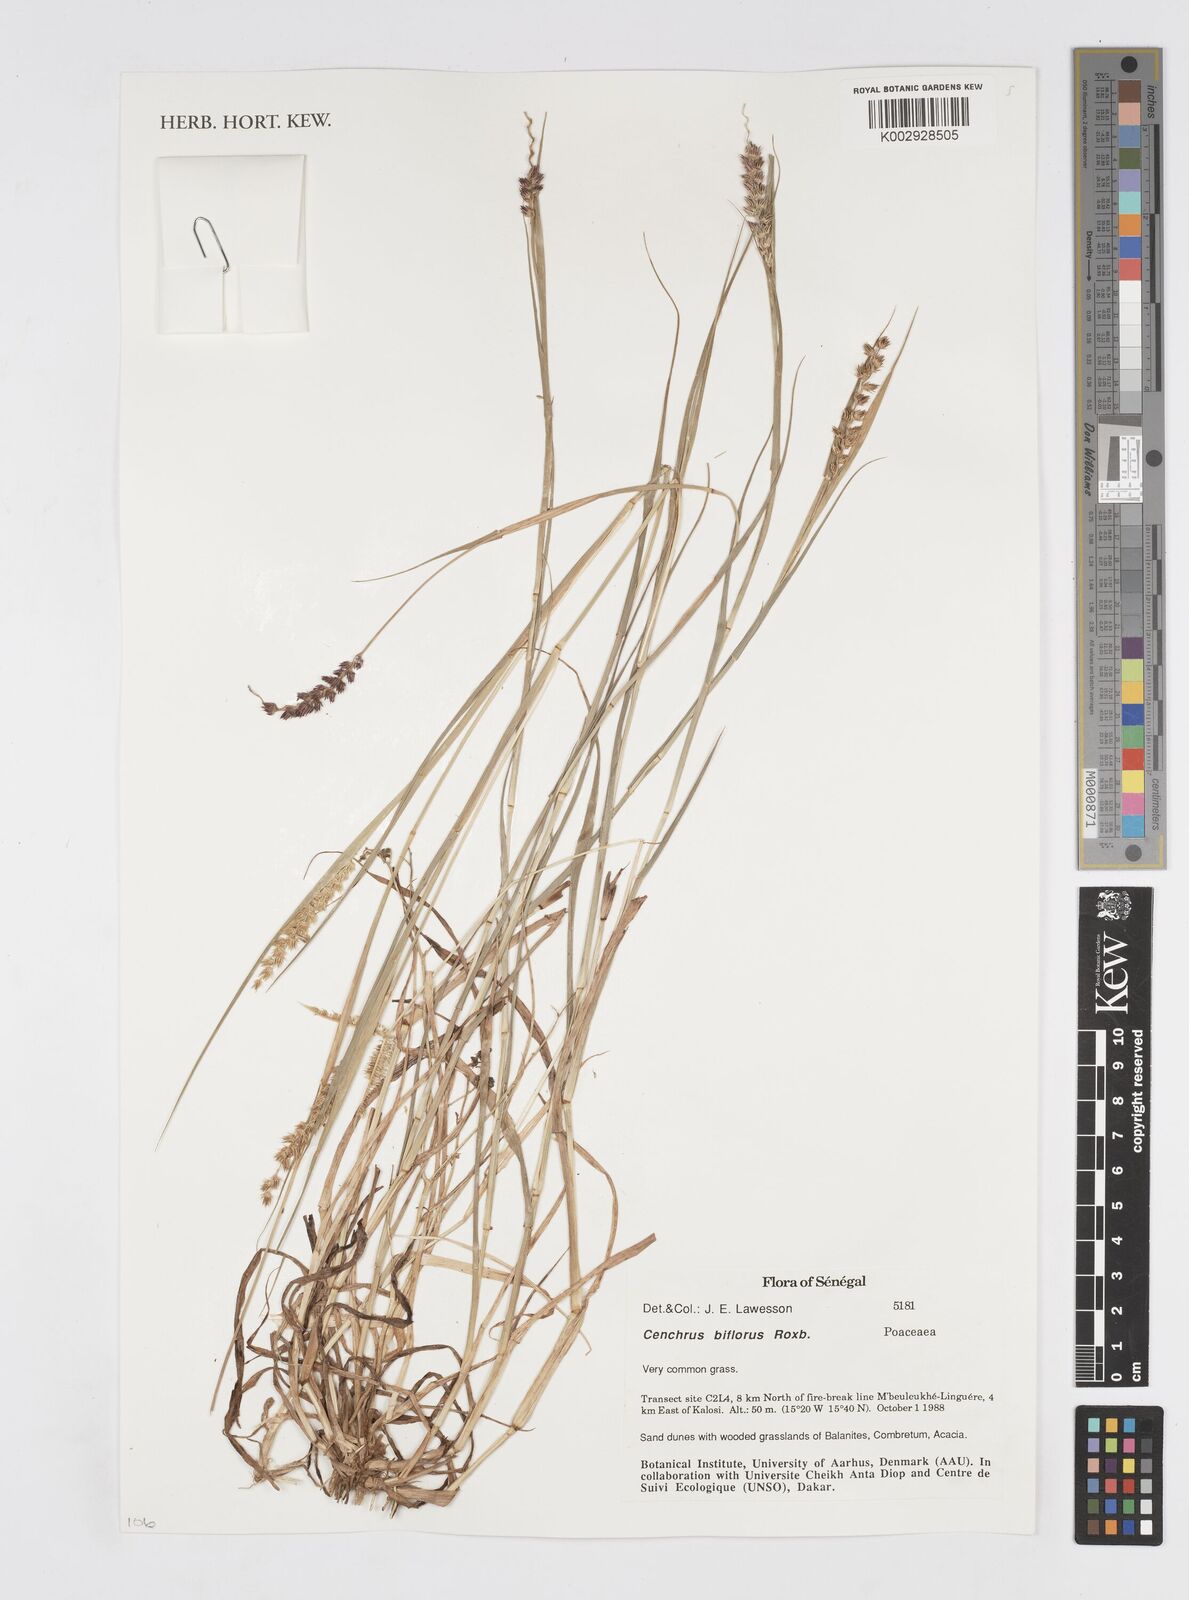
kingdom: Plantae
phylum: Tracheophyta
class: Liliopsida
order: Poales
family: Poaceae
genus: Cenchrus
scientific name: Cenchrus biflorus
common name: Indian sandbur
